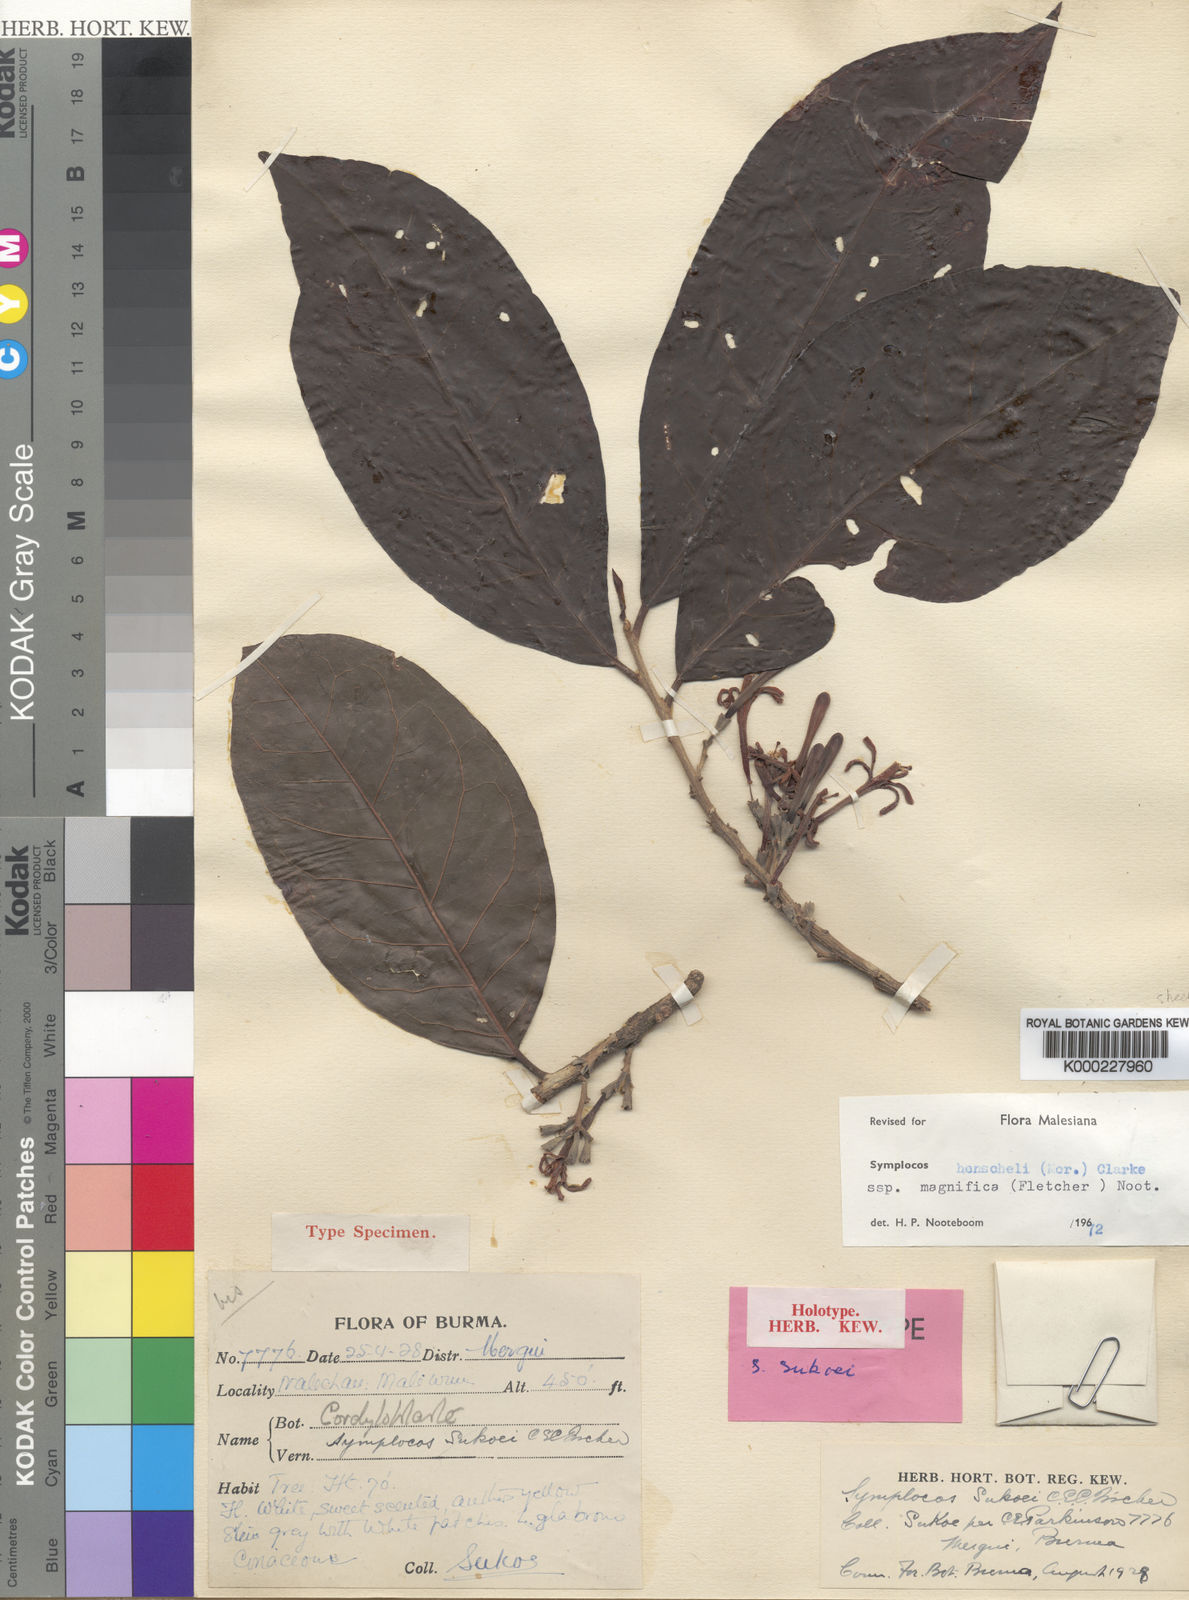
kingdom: Plantae
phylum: Tracheophyta
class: Magnoliopsida
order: Ericales
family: Symplocaceae
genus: Symplocos
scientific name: Symplocos henschelii
